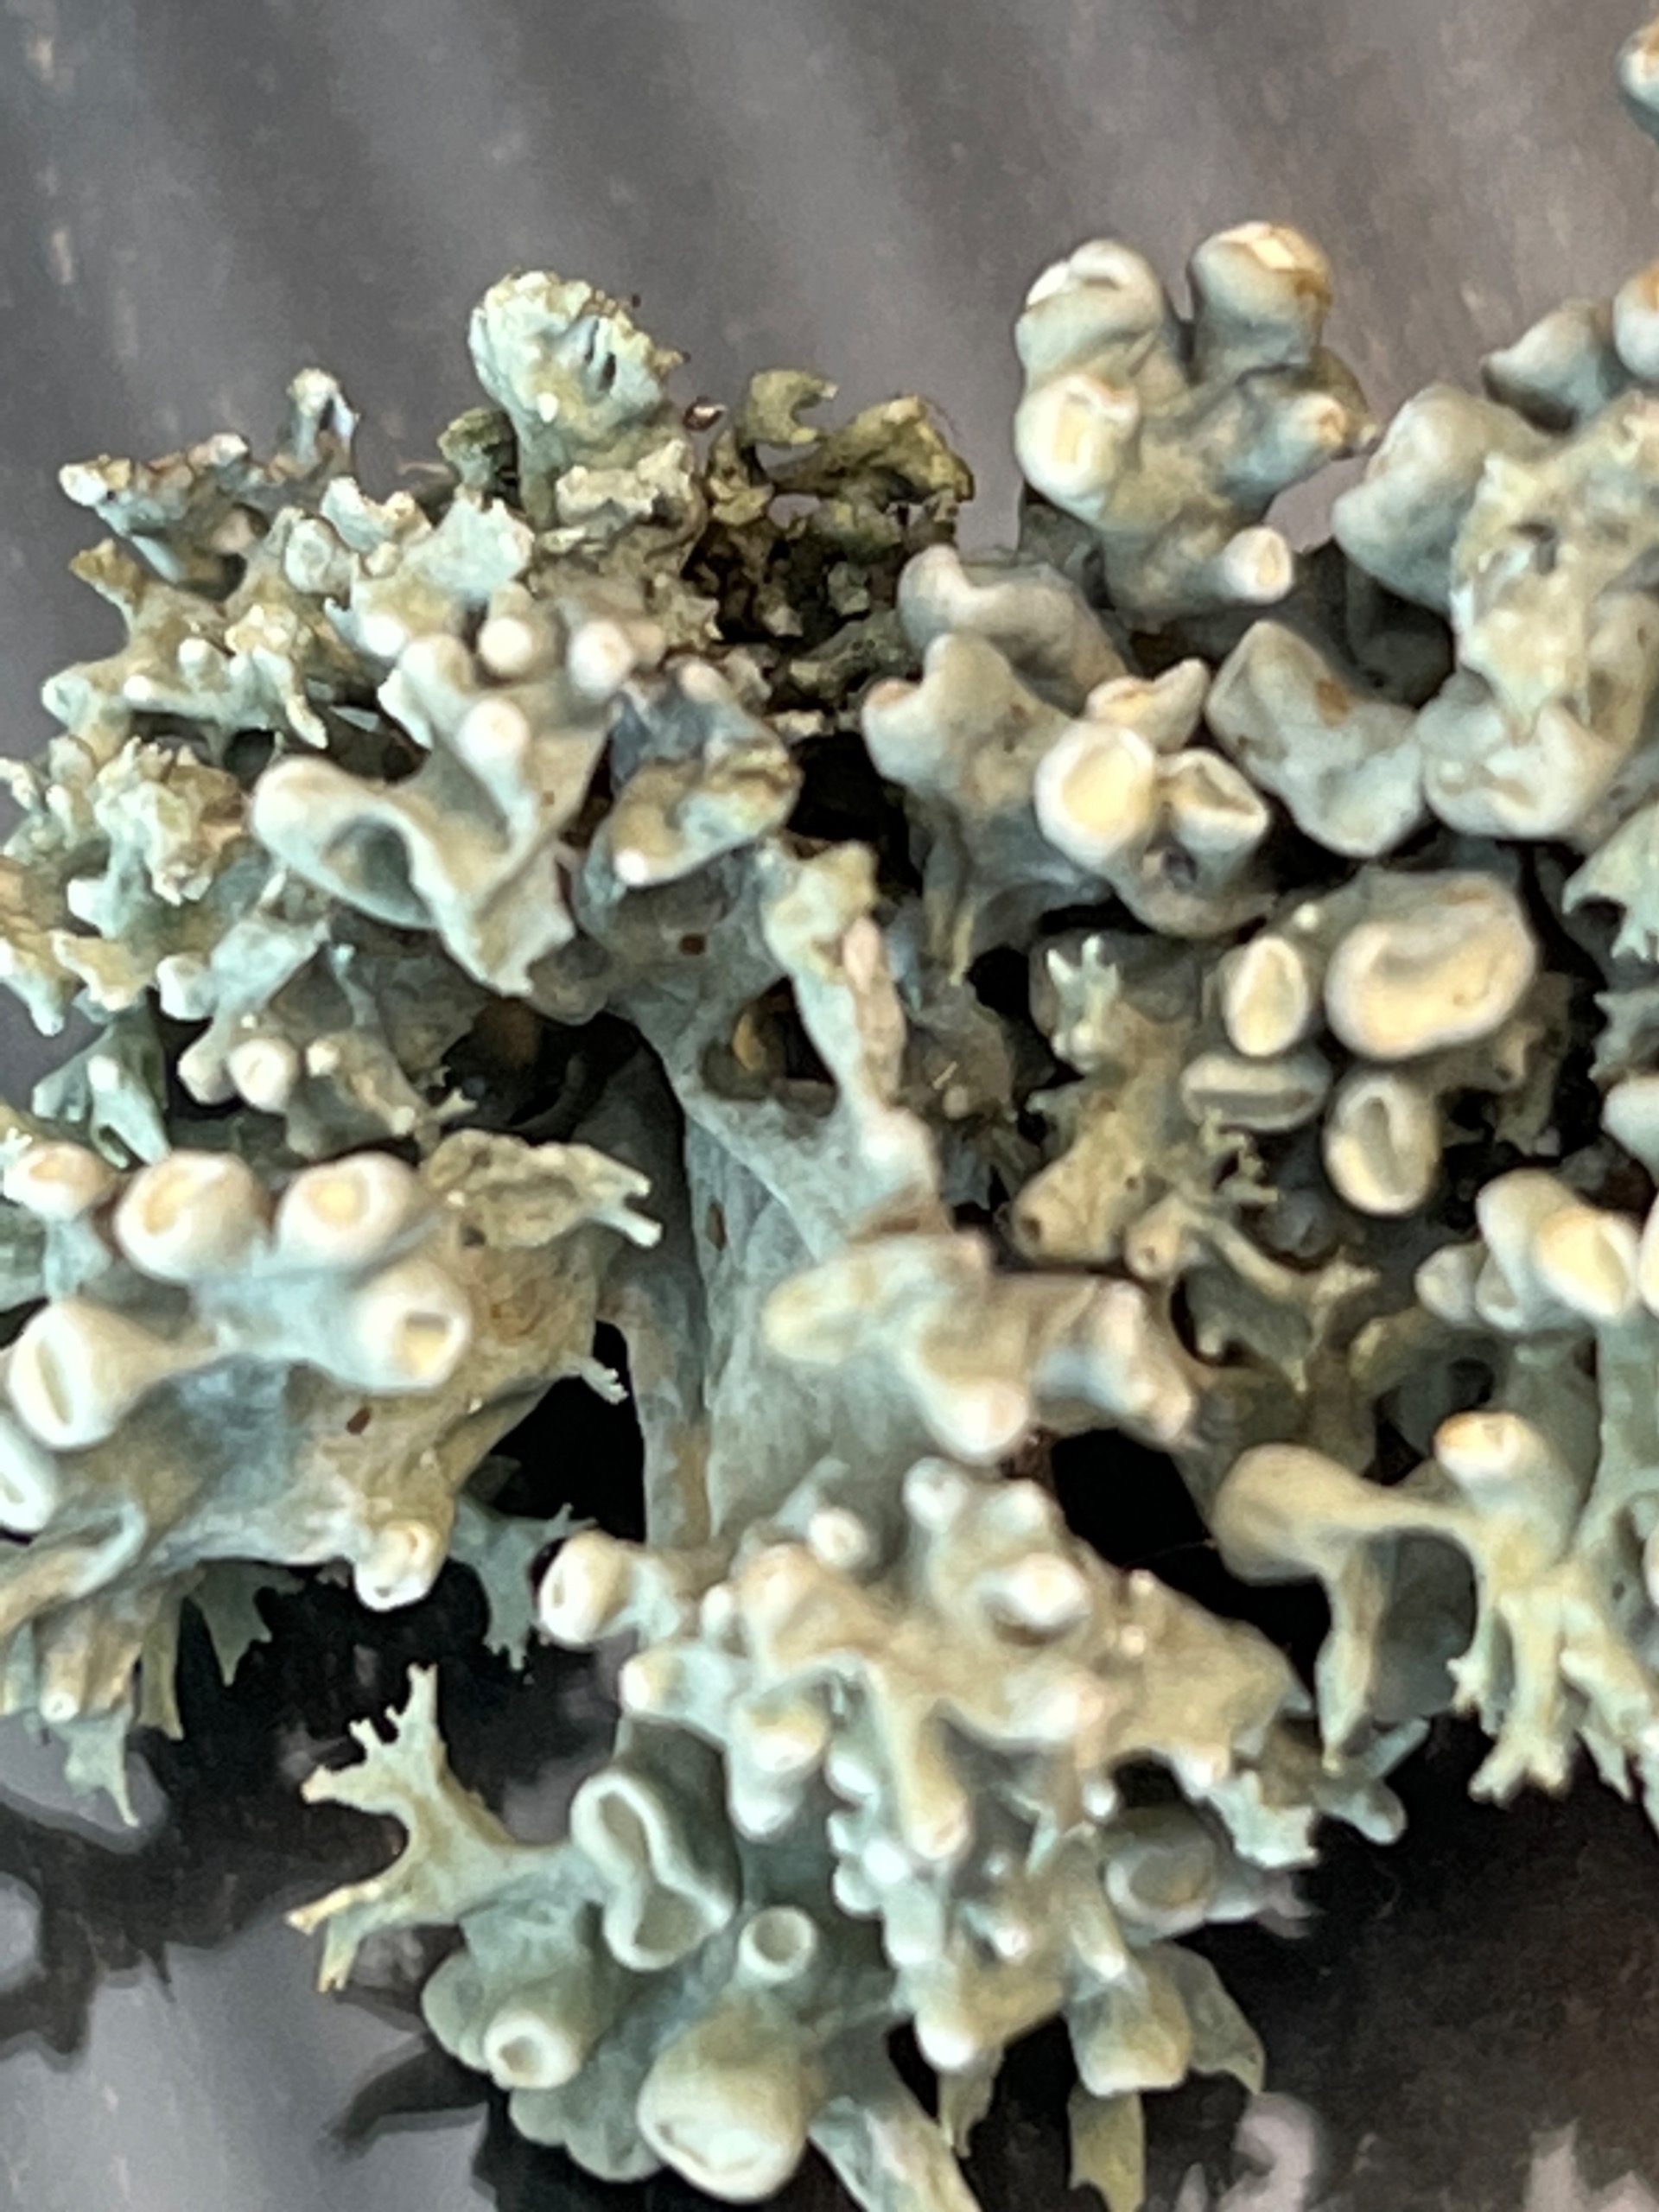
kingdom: Fungi
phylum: Ascomycota
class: Lecanoromycetes
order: Lecanorales
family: Ramalinaceae
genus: Ramalina
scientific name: Ramalina fastigiata
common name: Tue-grenlav
